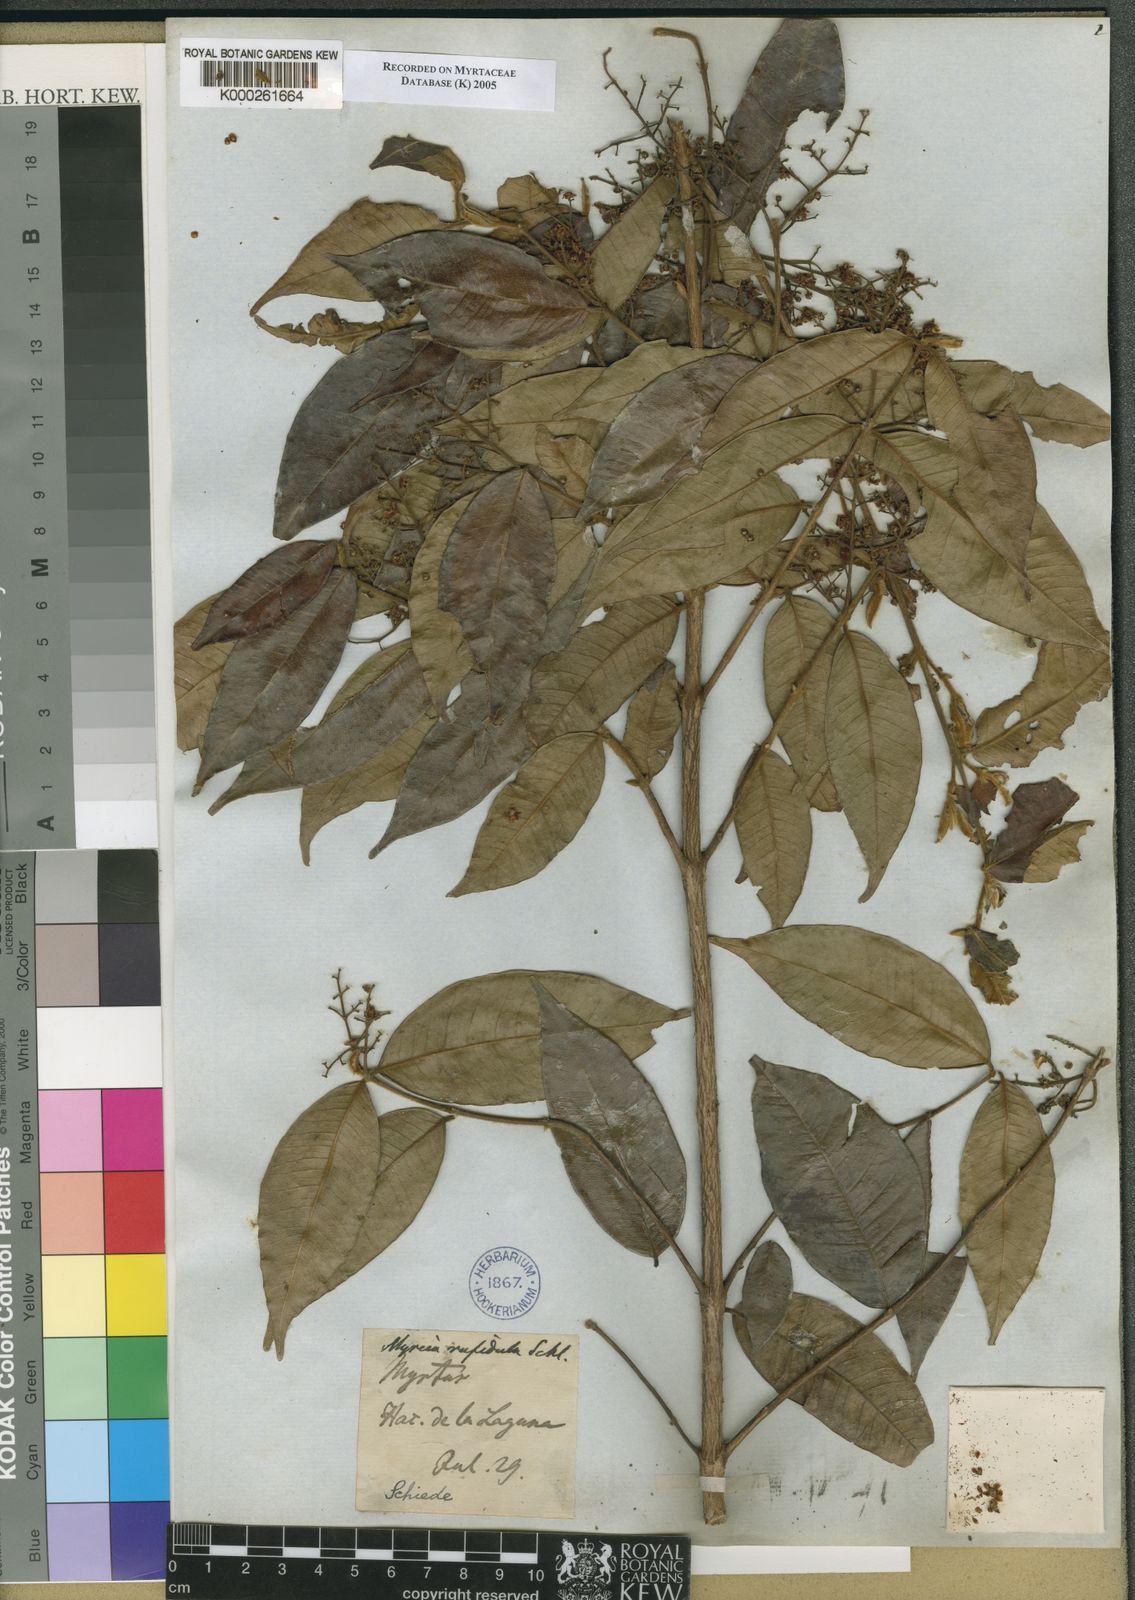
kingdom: Plantae
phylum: Tracheophyta
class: Magnoliopsida
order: Myrtales
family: Myrtaceae
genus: Myrcia
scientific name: Myrcia splendens
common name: Surinam cherry
